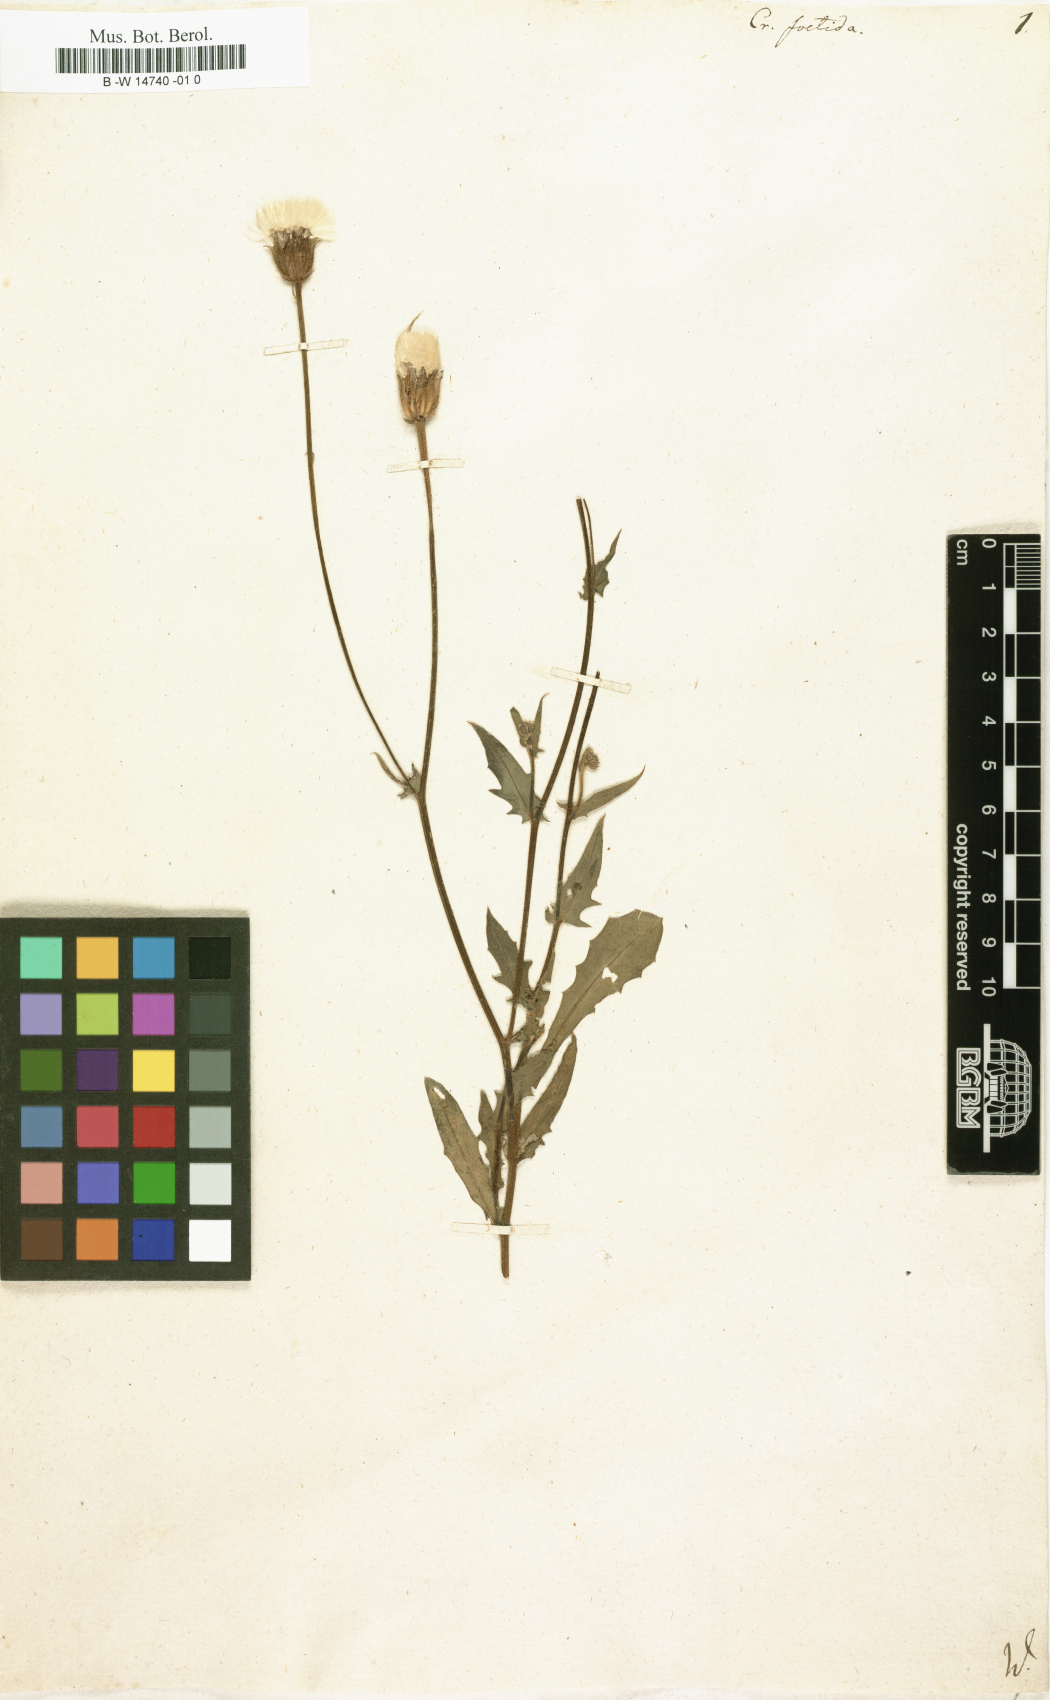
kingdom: Plantae
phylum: Tracheophyta
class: Magnoliopsida
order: Asterales
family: Asteraceae
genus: Crepis
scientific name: Crepis foetida
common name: Stinking hawk's-beard
